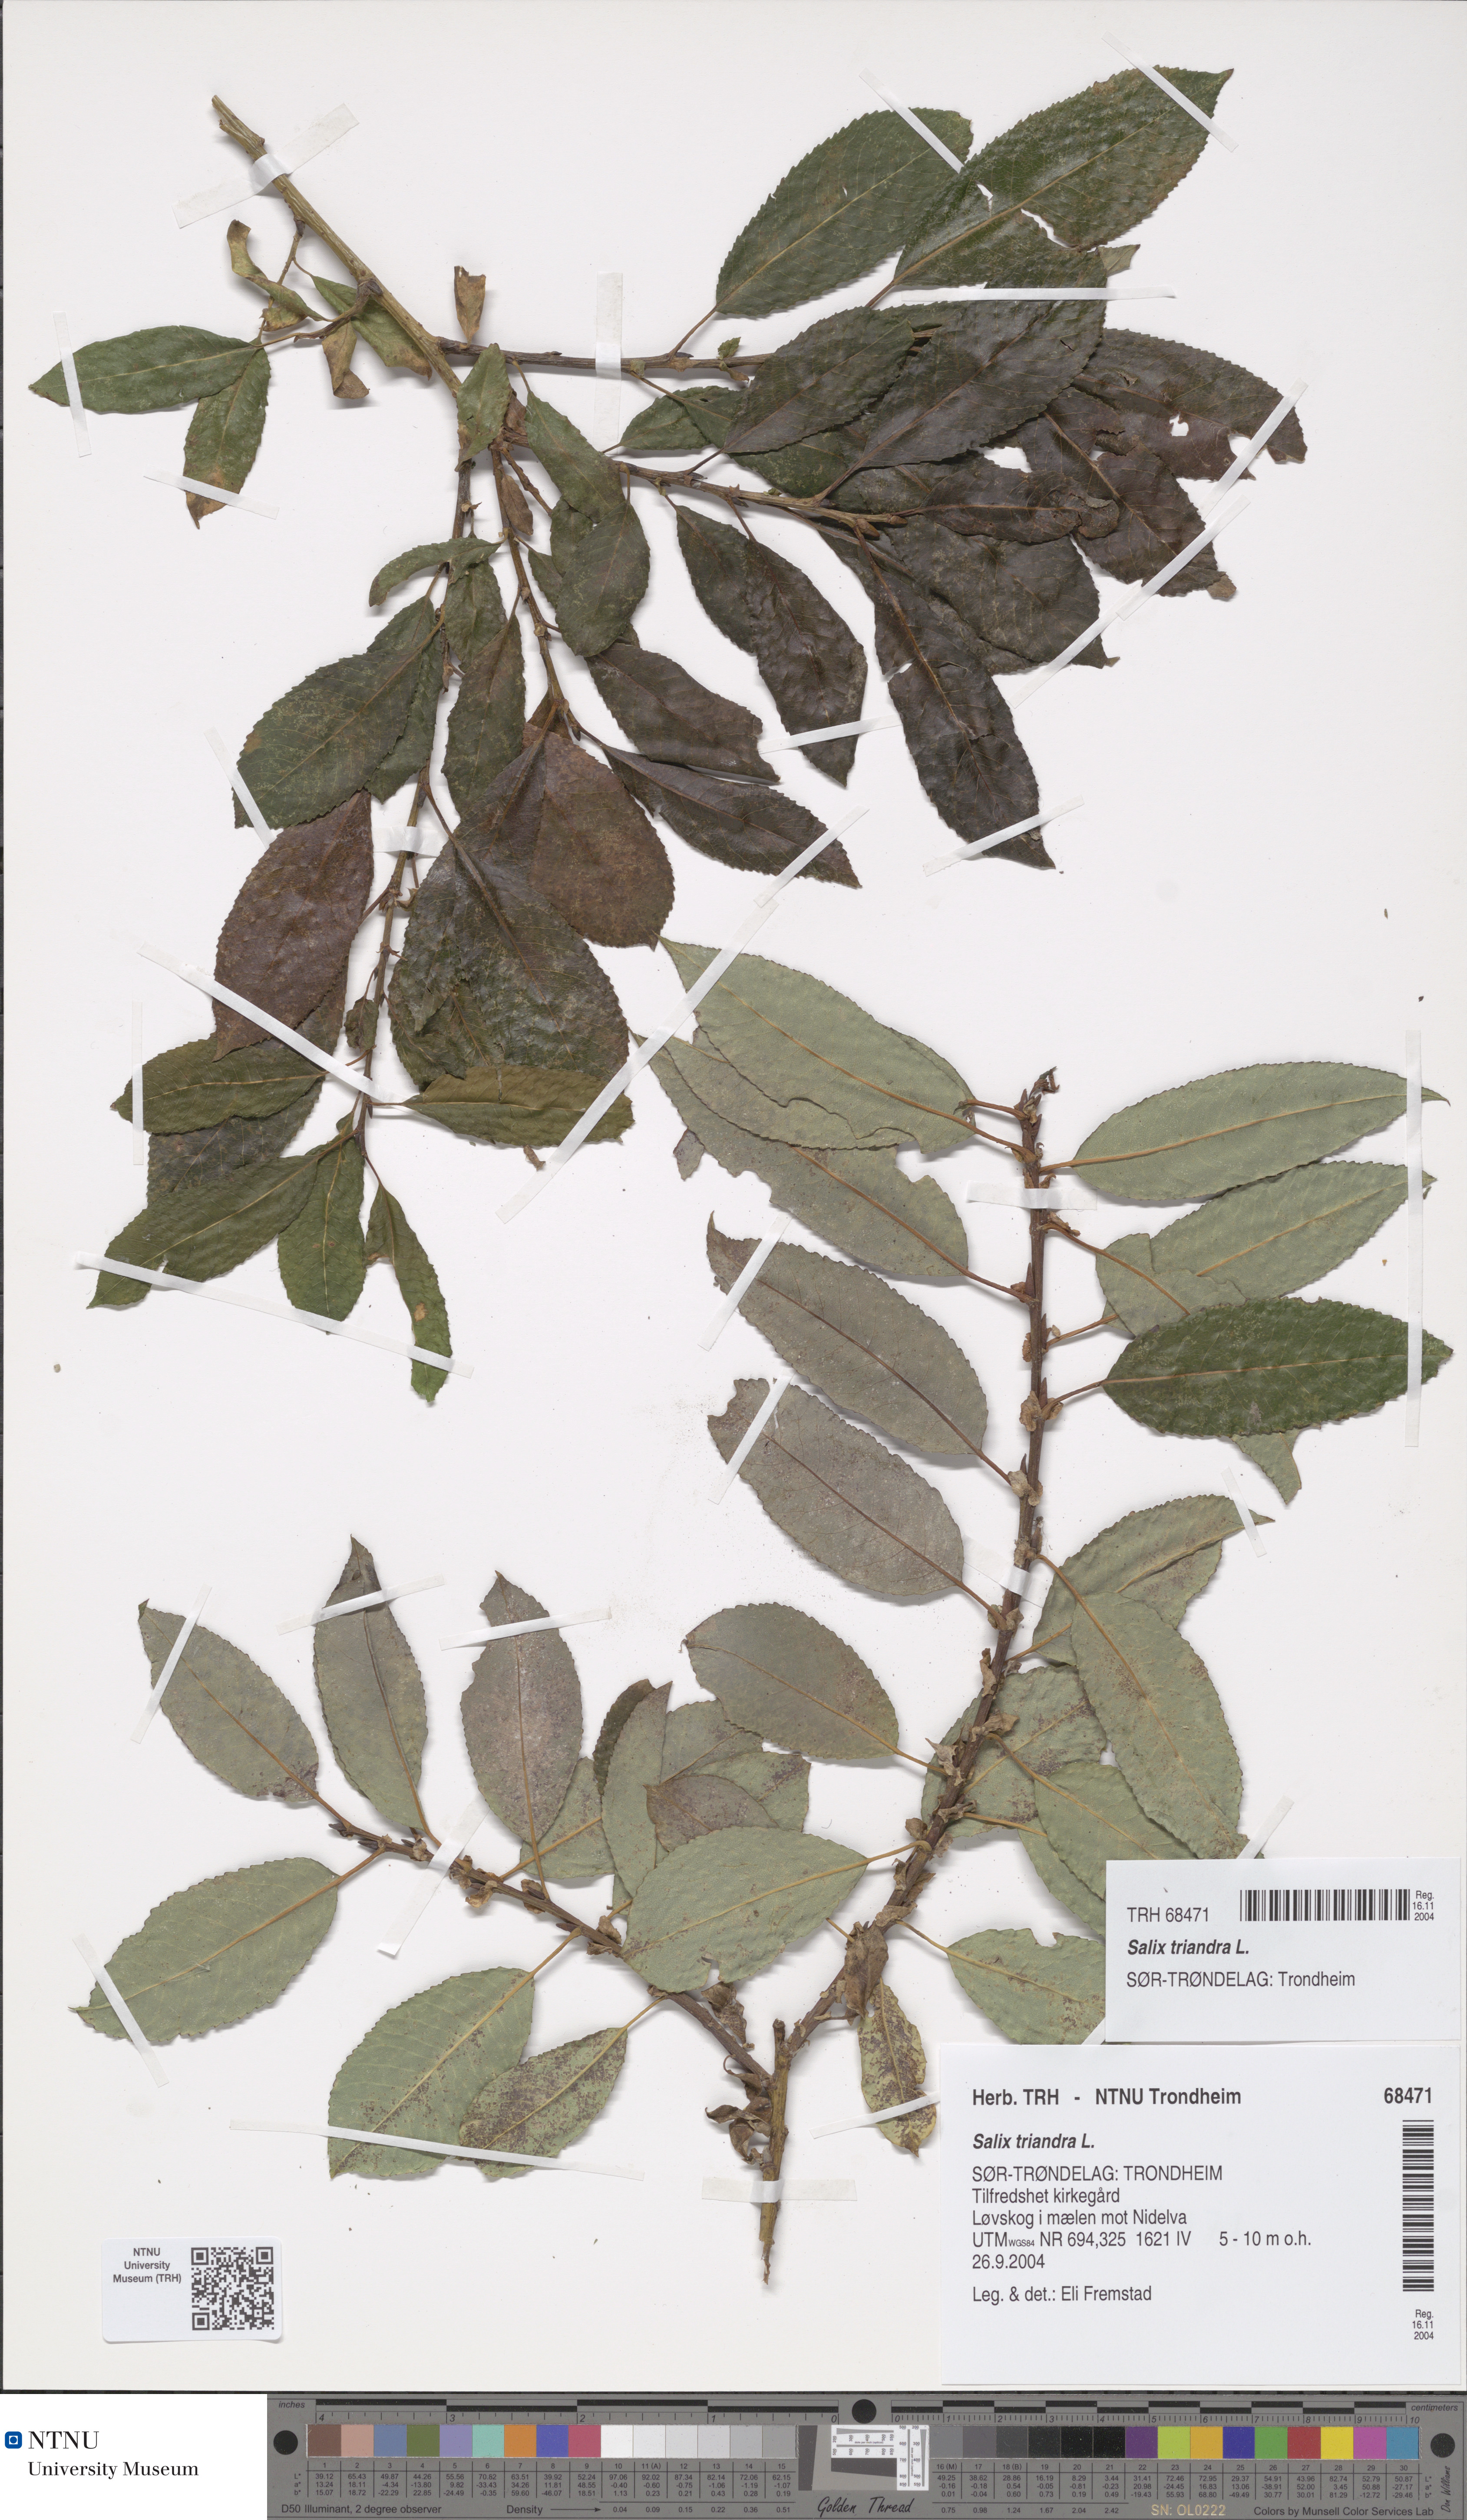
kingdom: Plantae
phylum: Tracheophyta
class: Magnoliopsida
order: Malpighiales
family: Salicaceae
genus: Salix
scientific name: Salix triandra
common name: Almond willow
